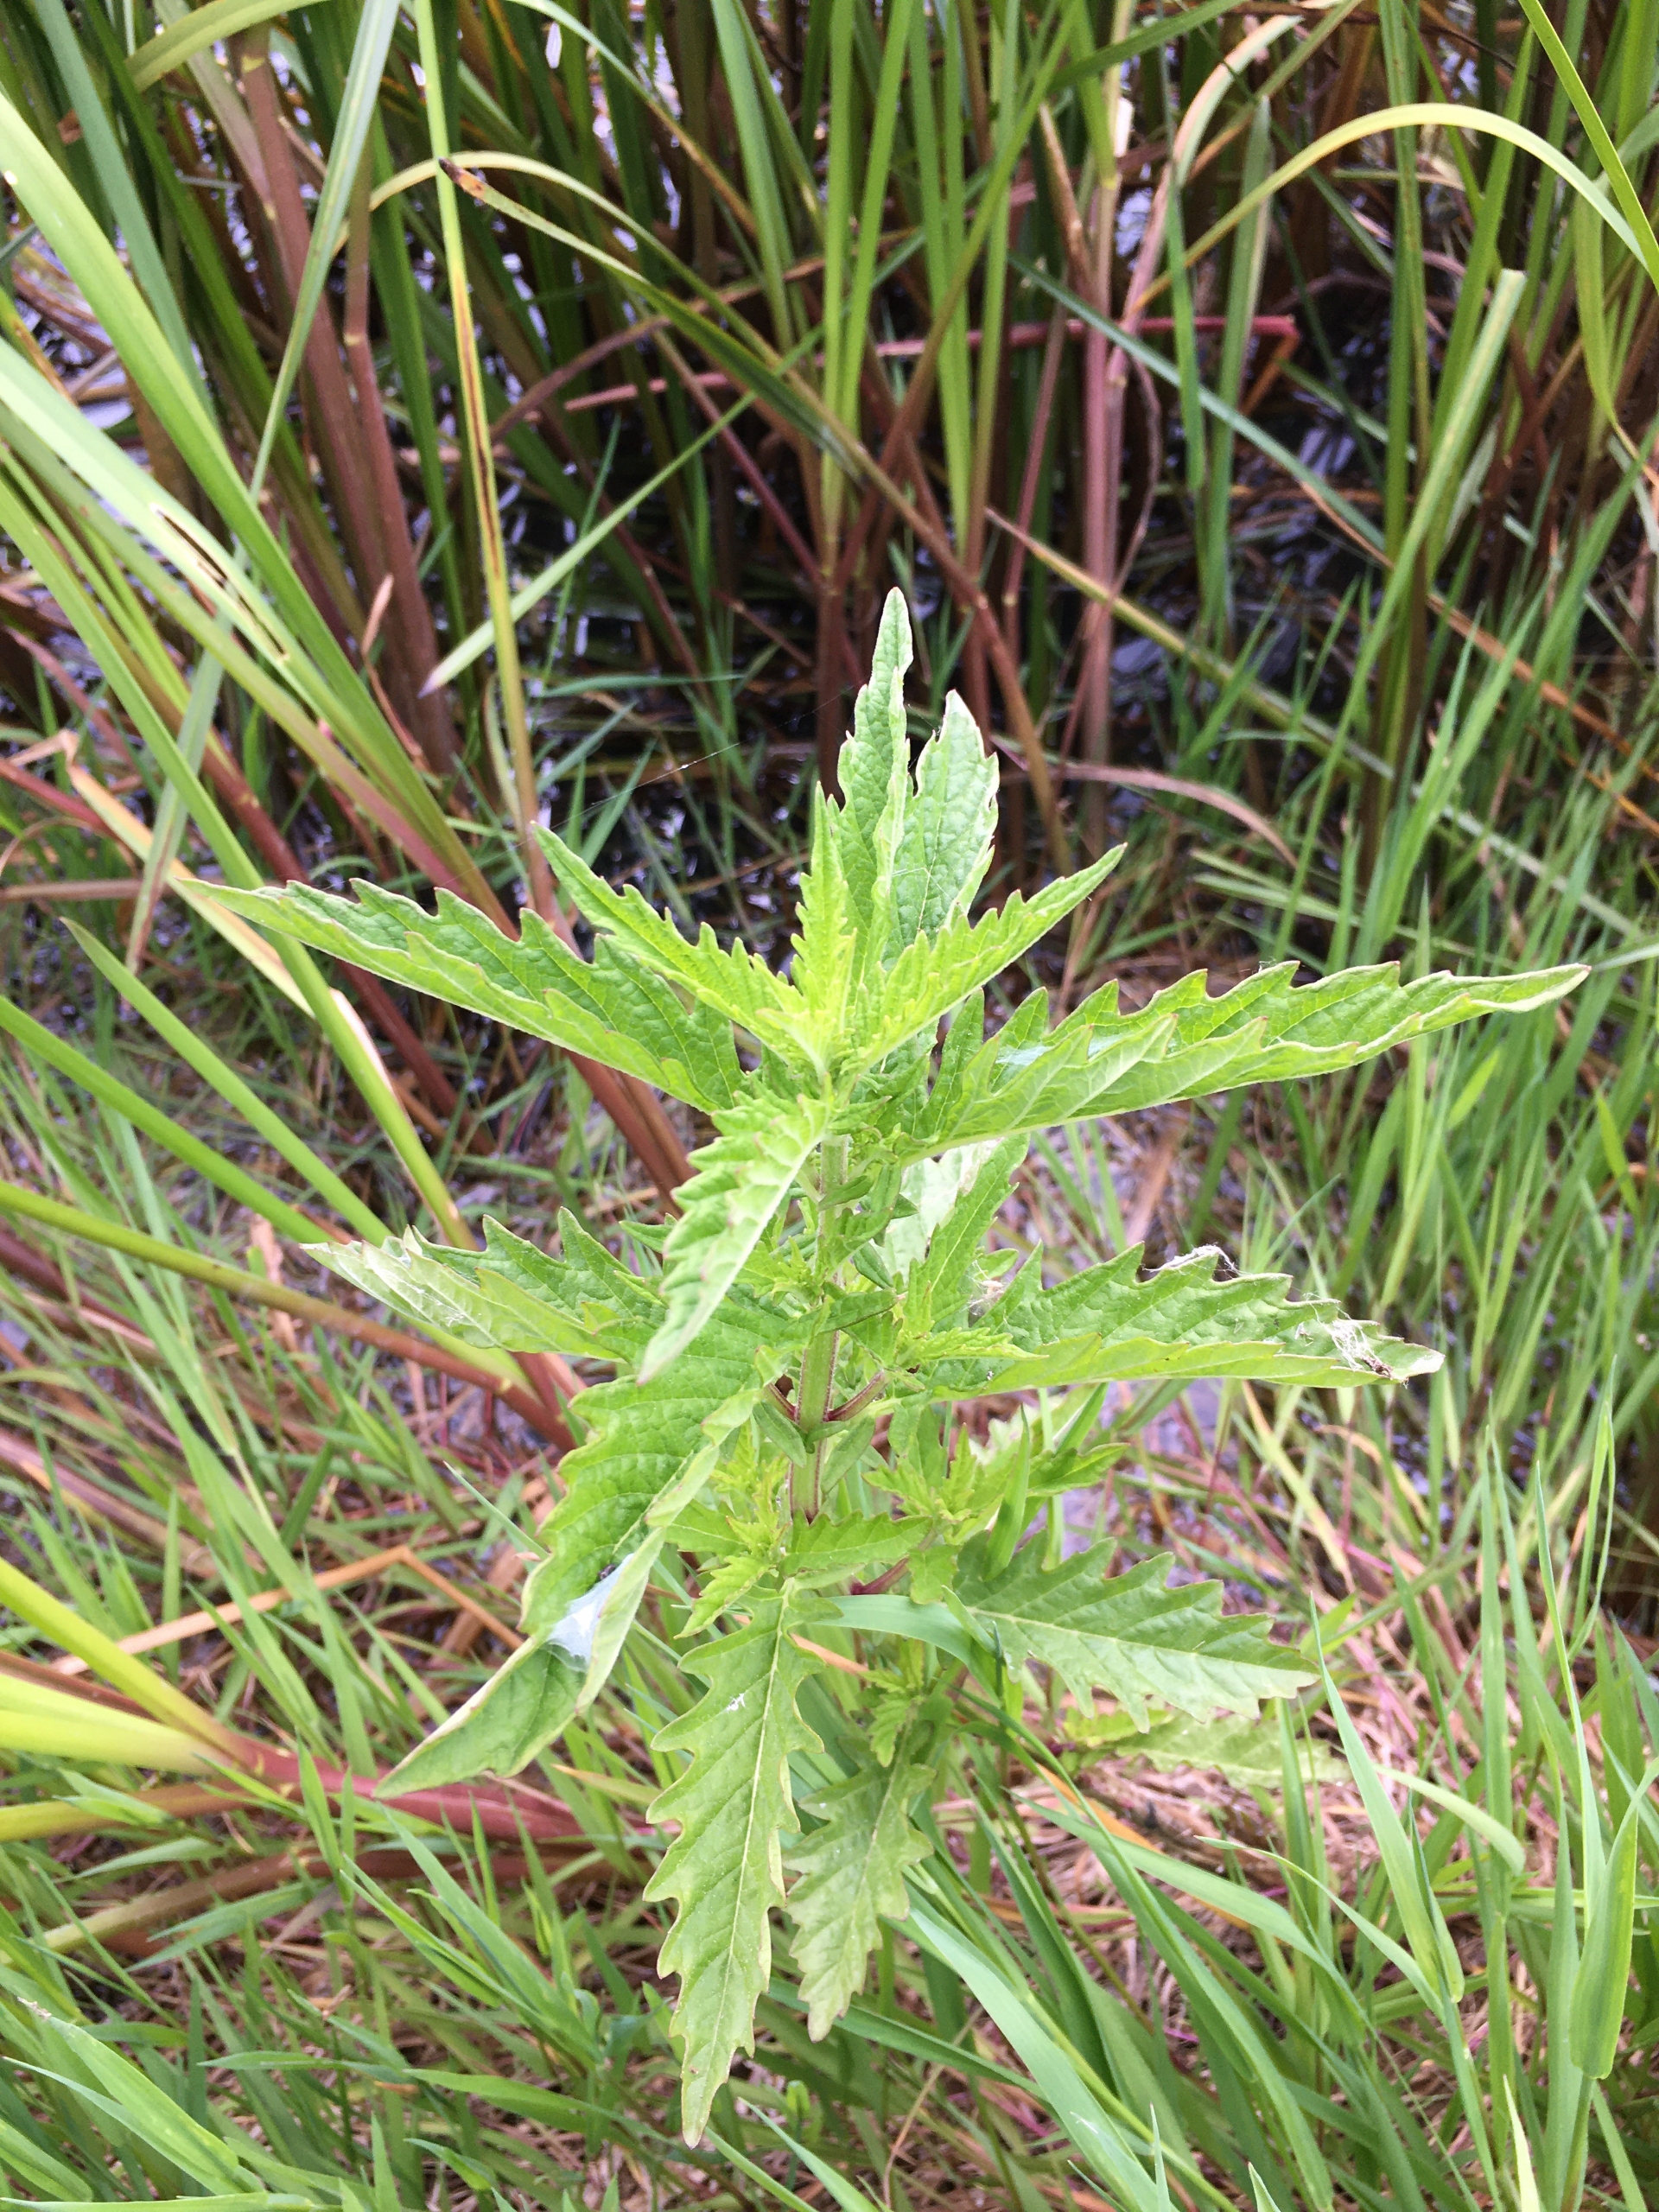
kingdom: Plantae
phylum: Tracheophyta
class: Magnoliopsida
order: Lamiales
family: Lamiaceae
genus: Lycopus
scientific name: Lycopus europaeus
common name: Sværtevæld
